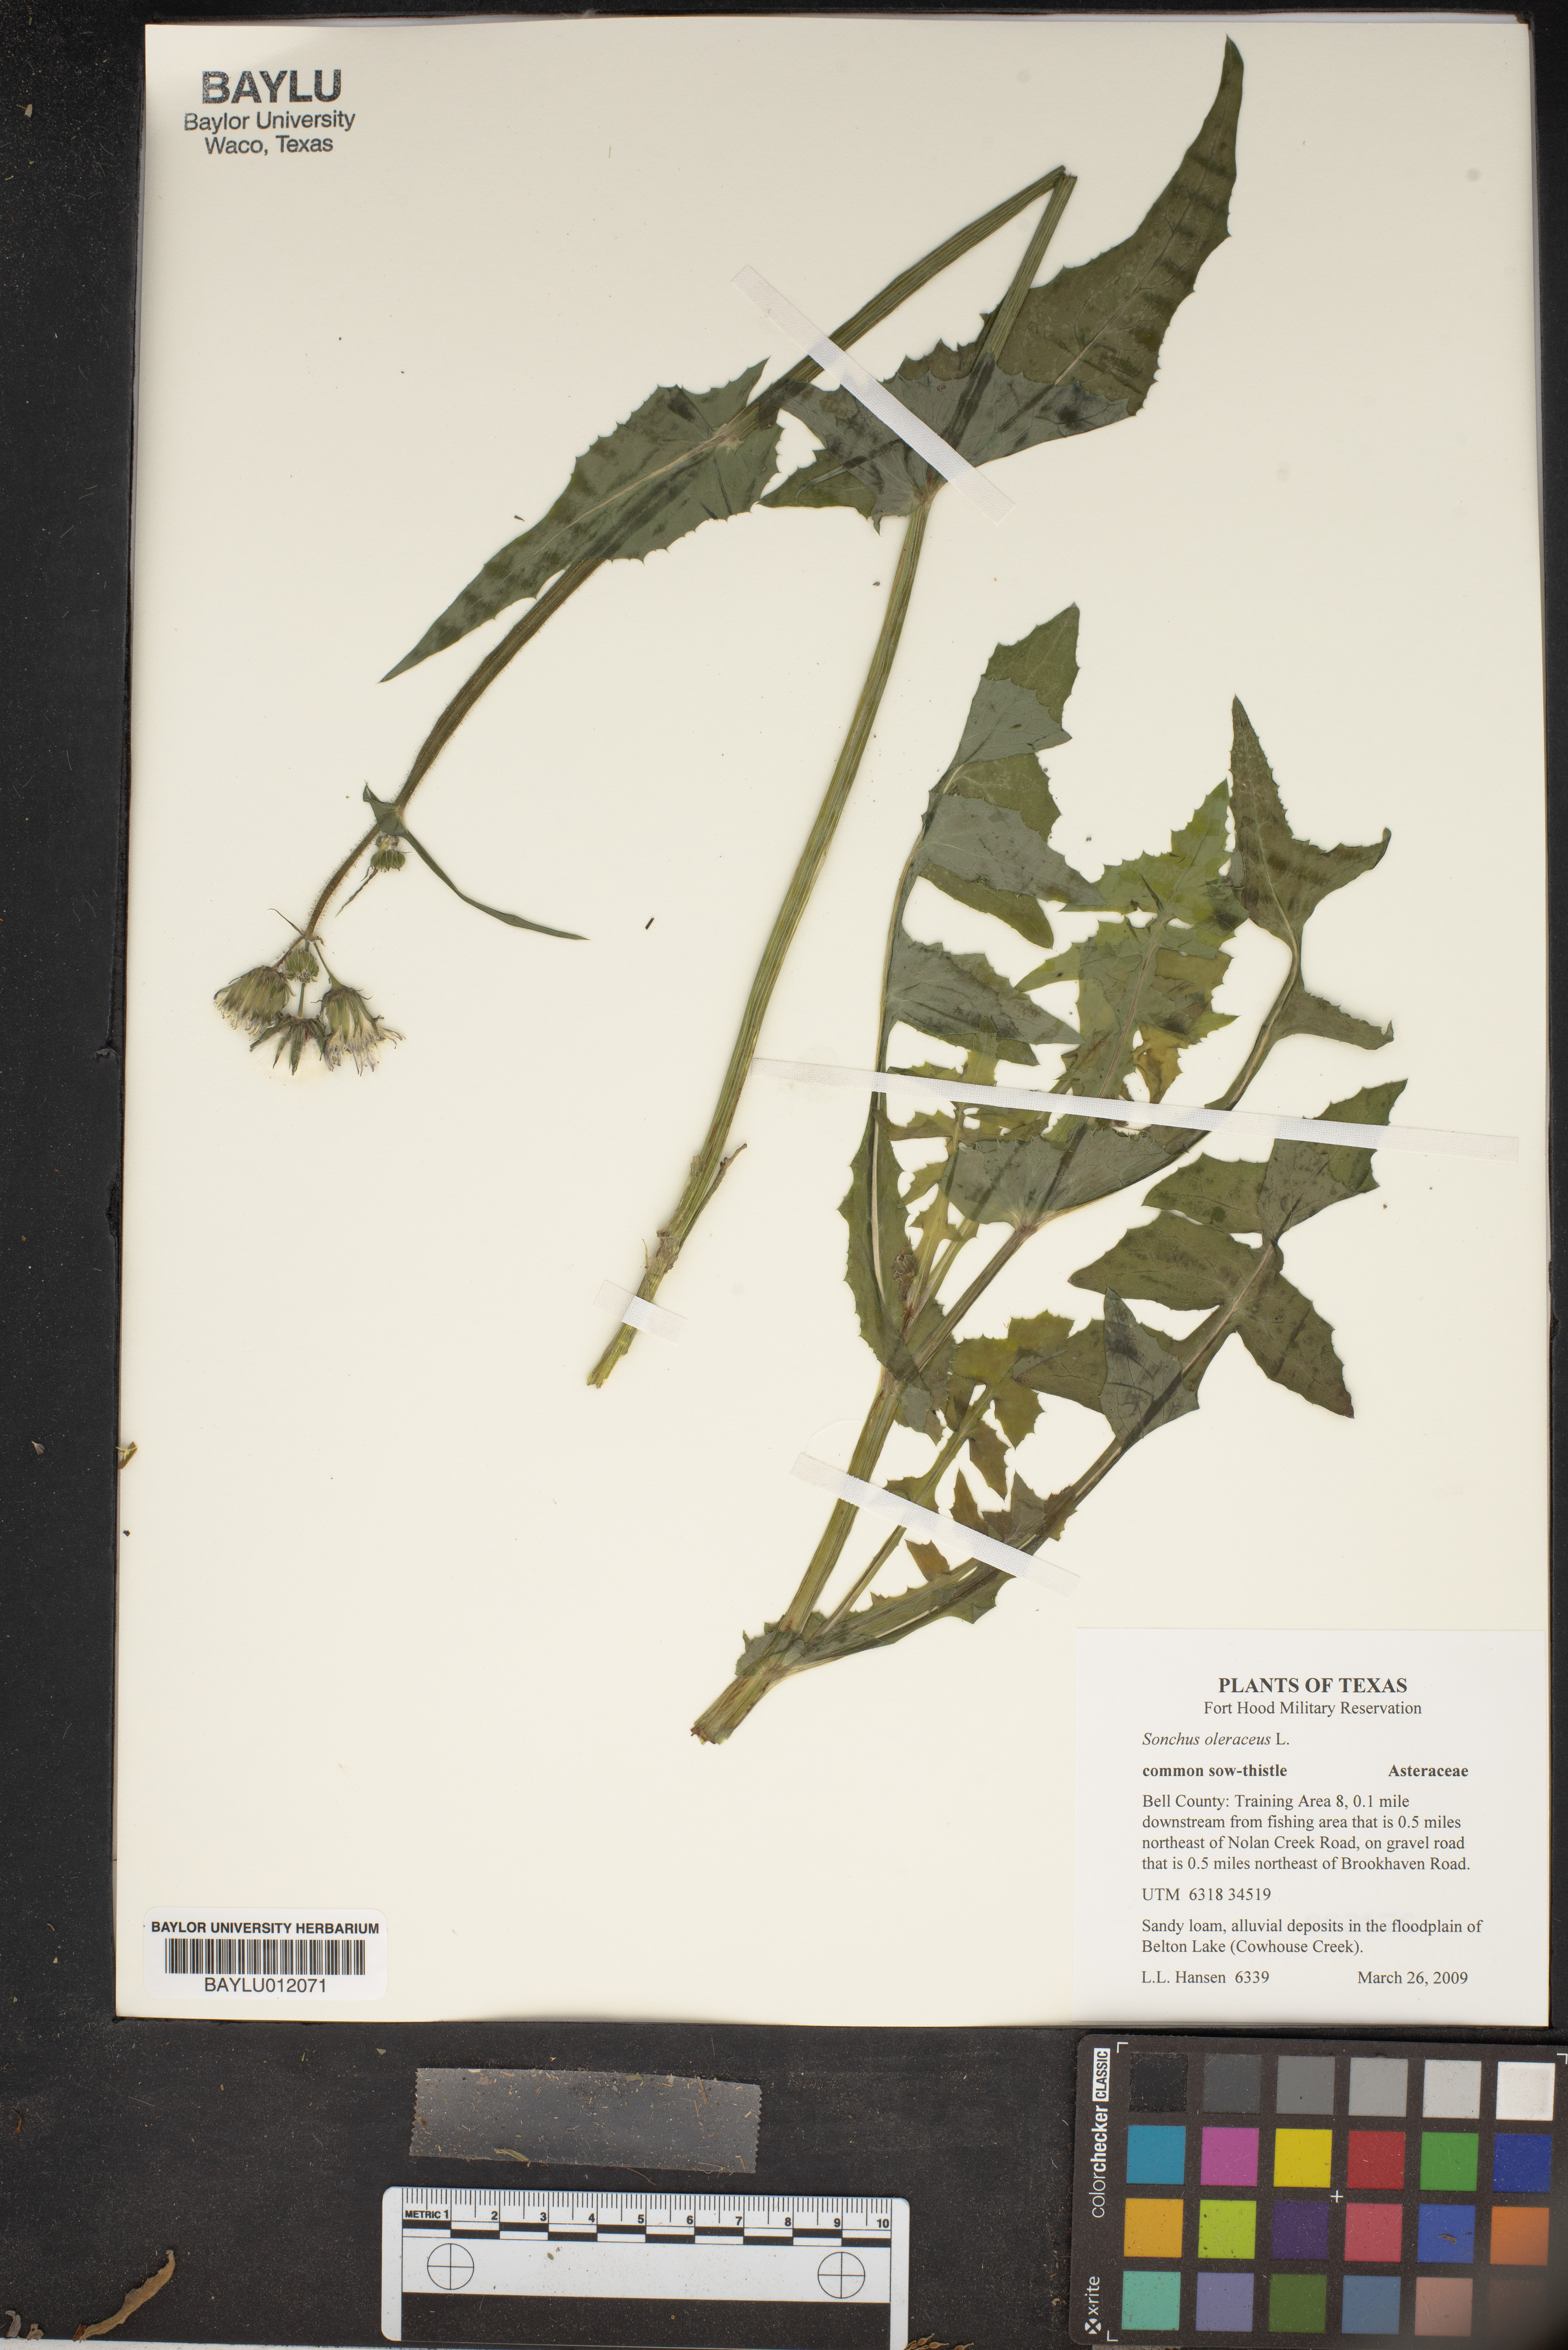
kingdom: Plantae
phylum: Tracheophyta
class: Magnoliopsida
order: Asterales
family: Asteraceae
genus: Sonchus
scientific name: Sonchus oleraceus
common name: Common sowthistle
